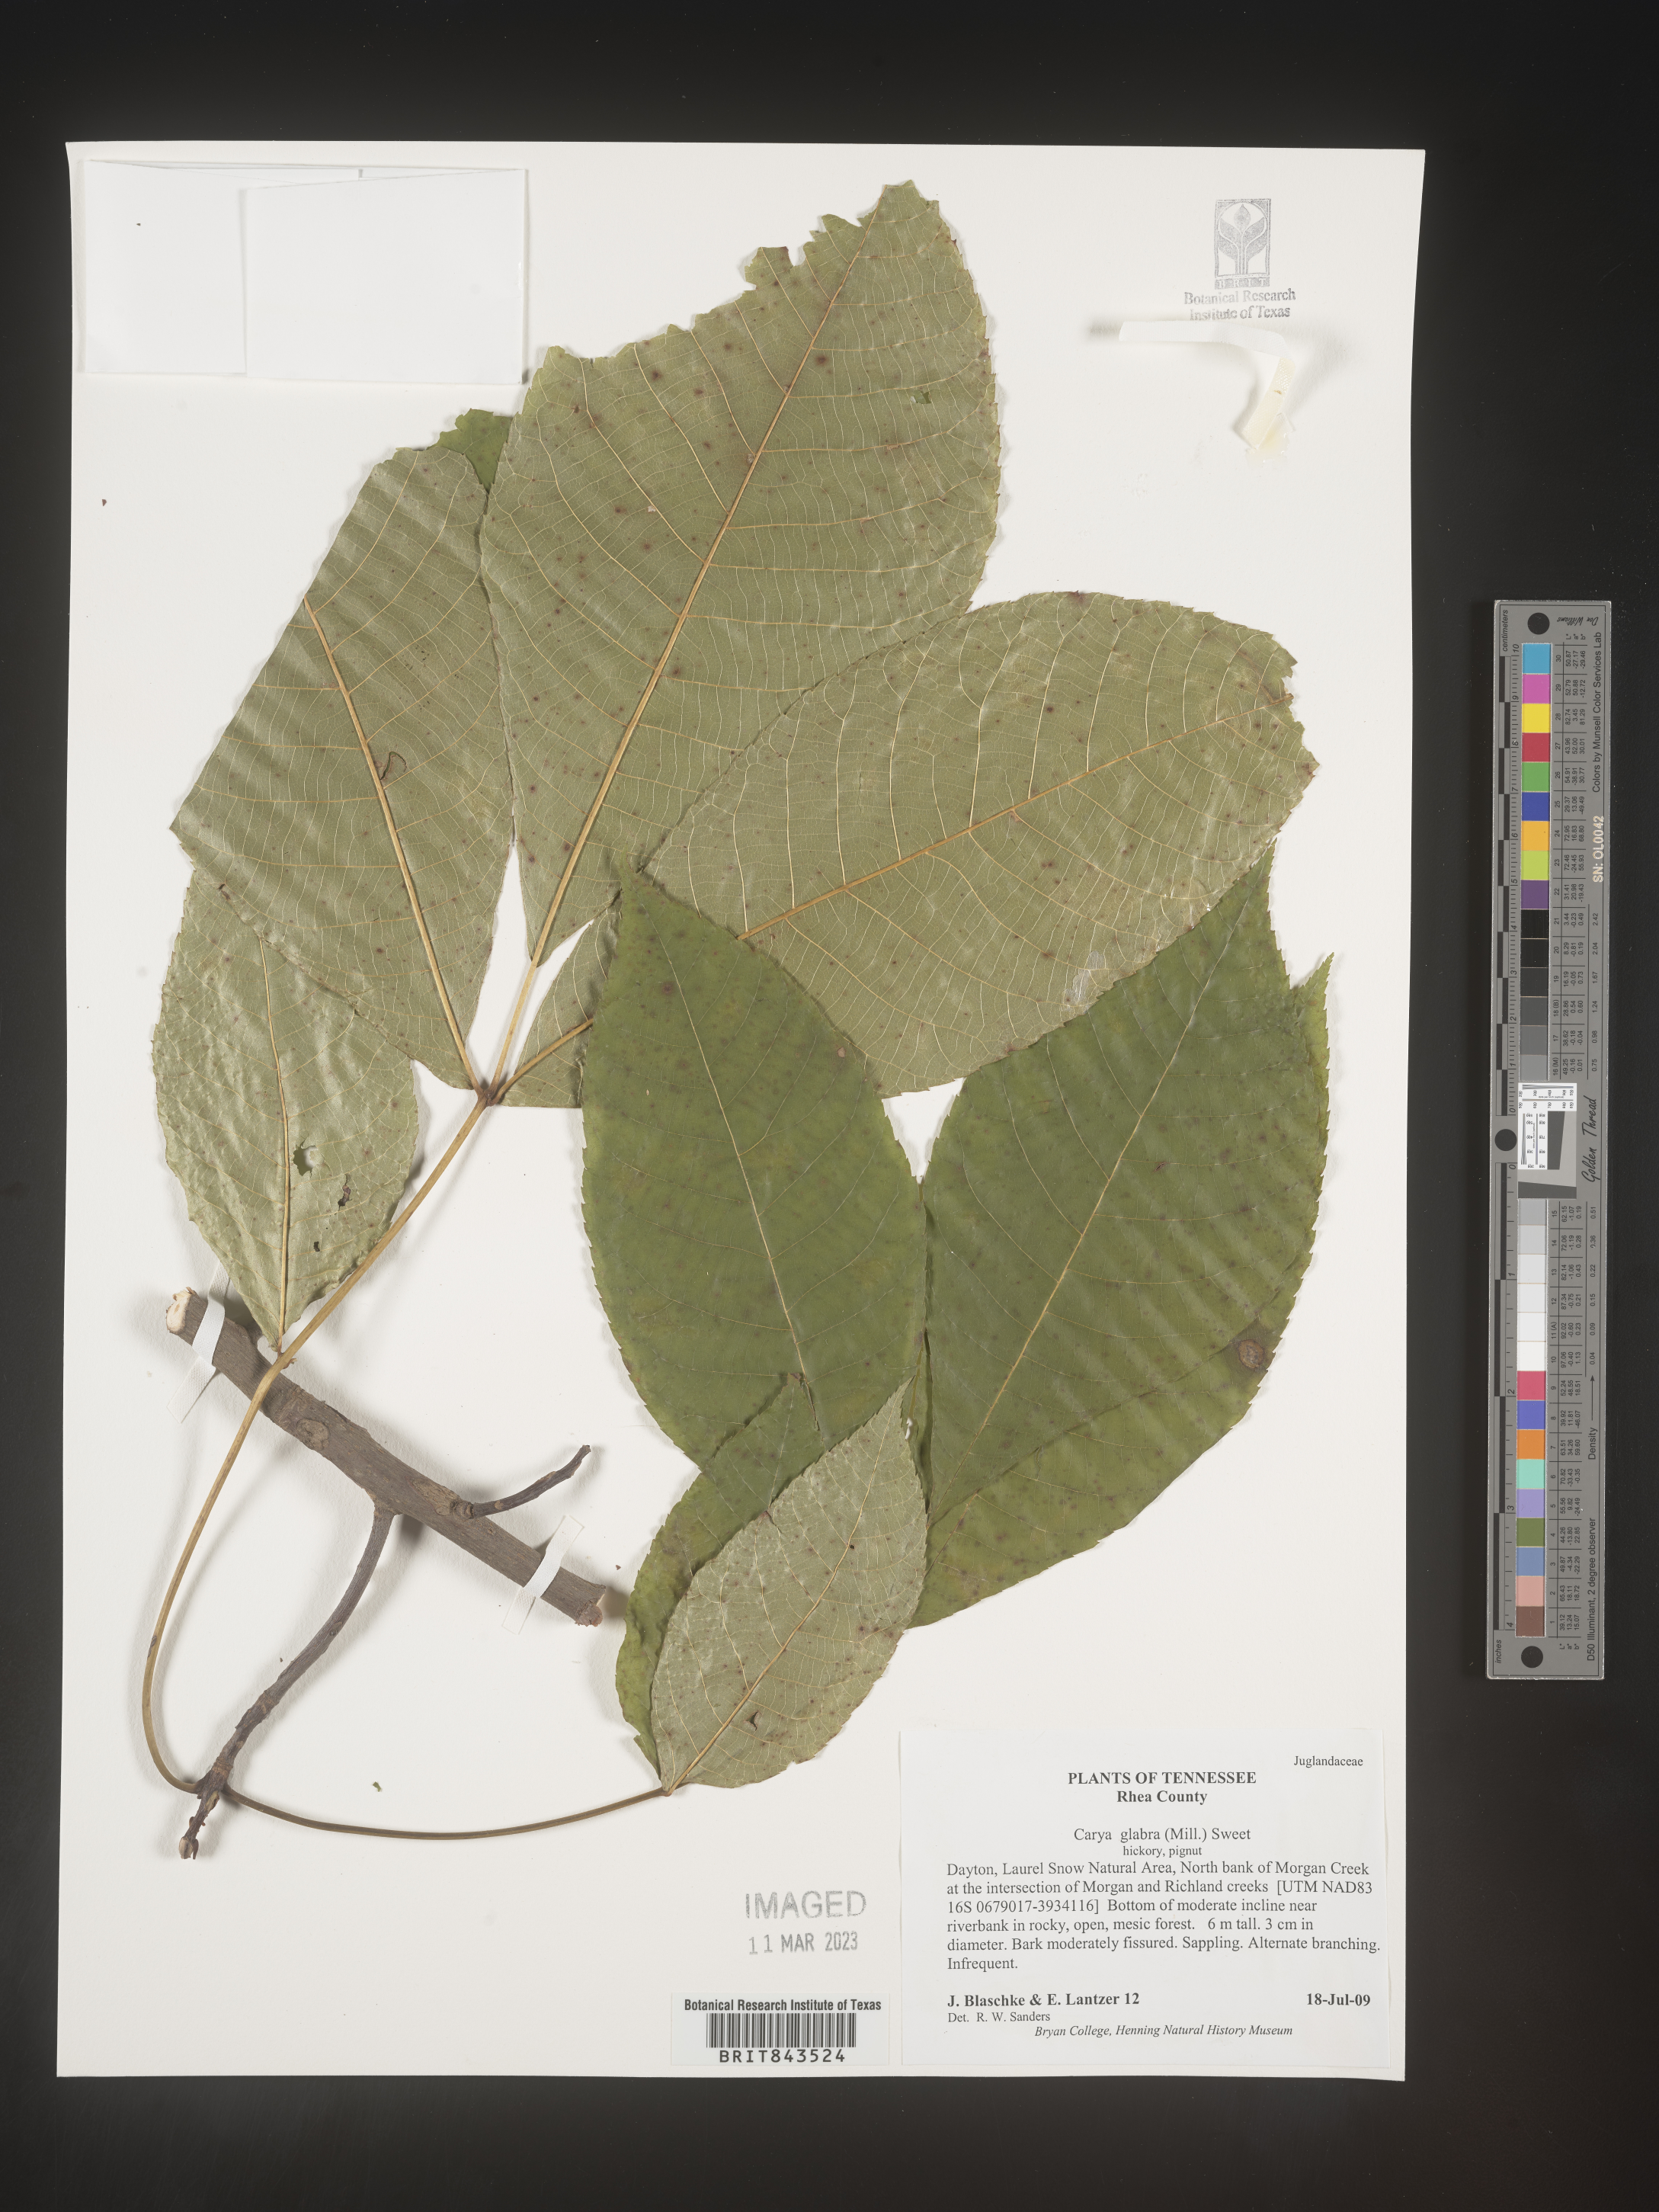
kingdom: Plantae
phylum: Tracheophyta
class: Magnoliopsida
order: Fagales
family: Juglandaceae
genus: Carya
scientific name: Carya glabra
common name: Pignut hickory
